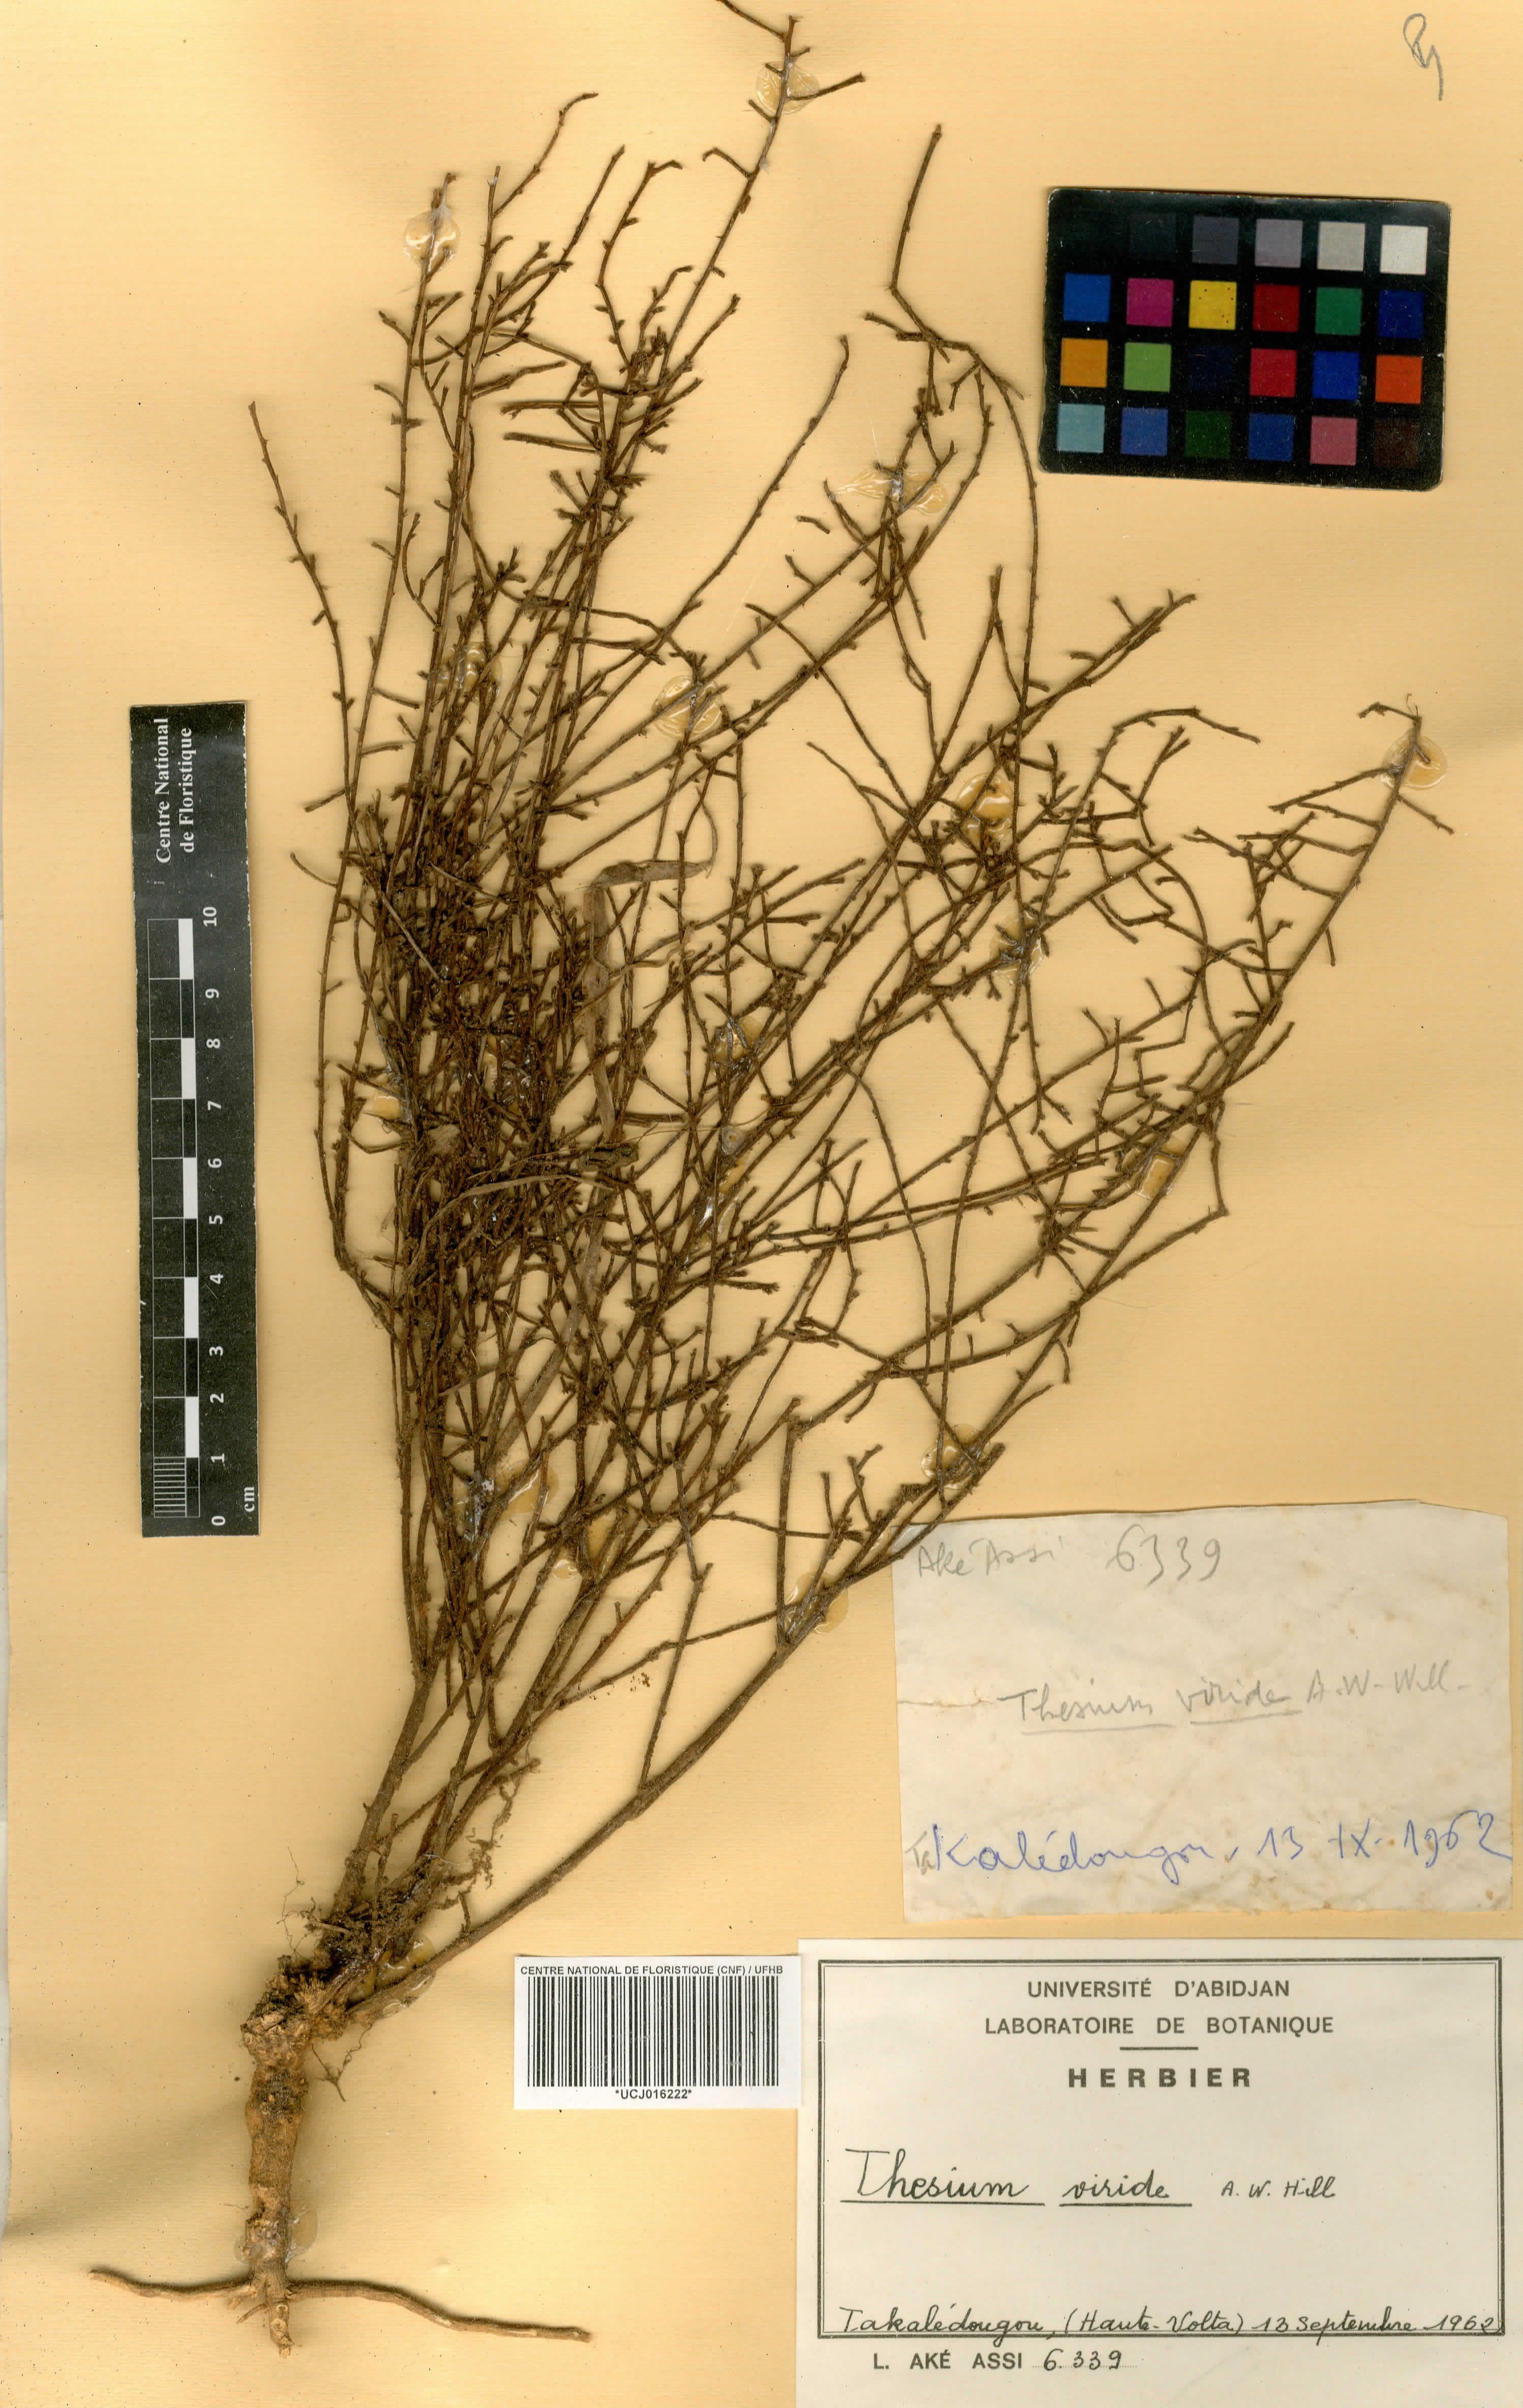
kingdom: Plantae
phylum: Tracheophyta
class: Magnoliopsida
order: Santalales
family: Thesiaceae
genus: Thesium
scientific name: Thesium viride
